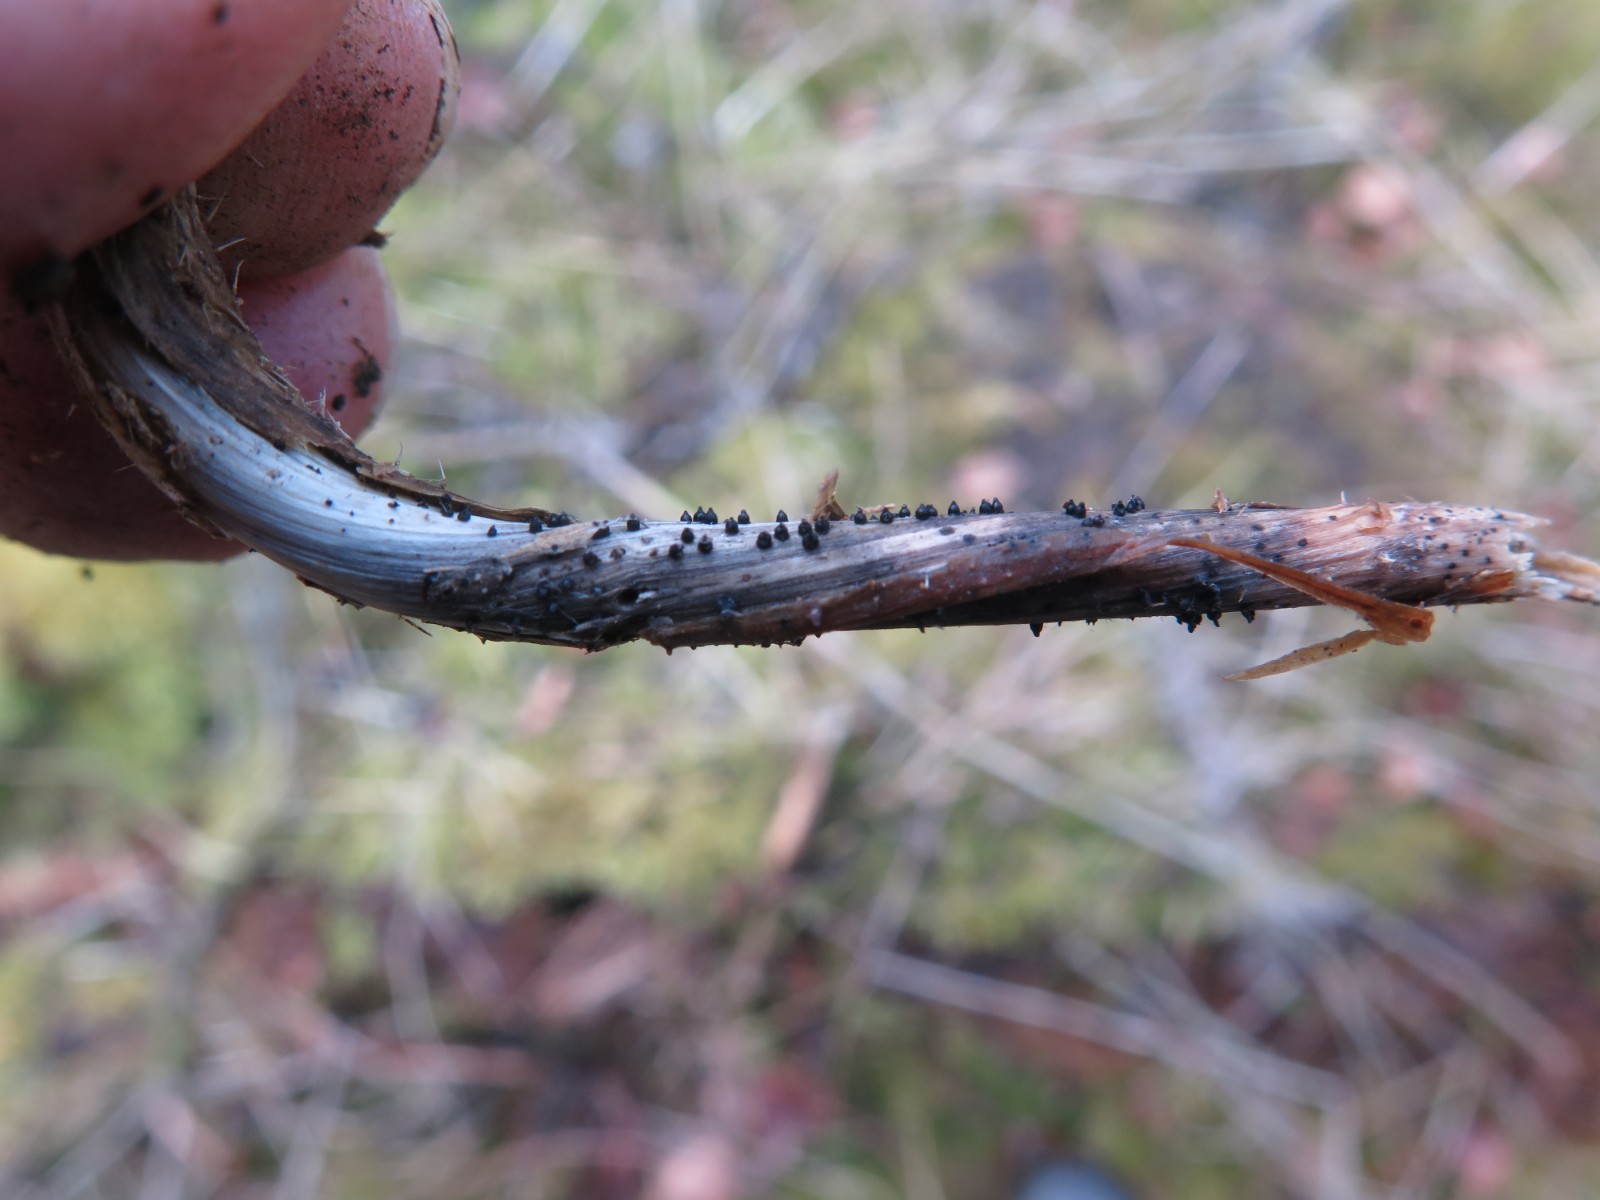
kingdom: Fungi
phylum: Ascomycota
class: Dothideomycetes
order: Pleosporales
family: Leptosphaeriaceae
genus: Leptosphaeria
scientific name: Leptosphaeria acuta
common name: spids kulkegle
